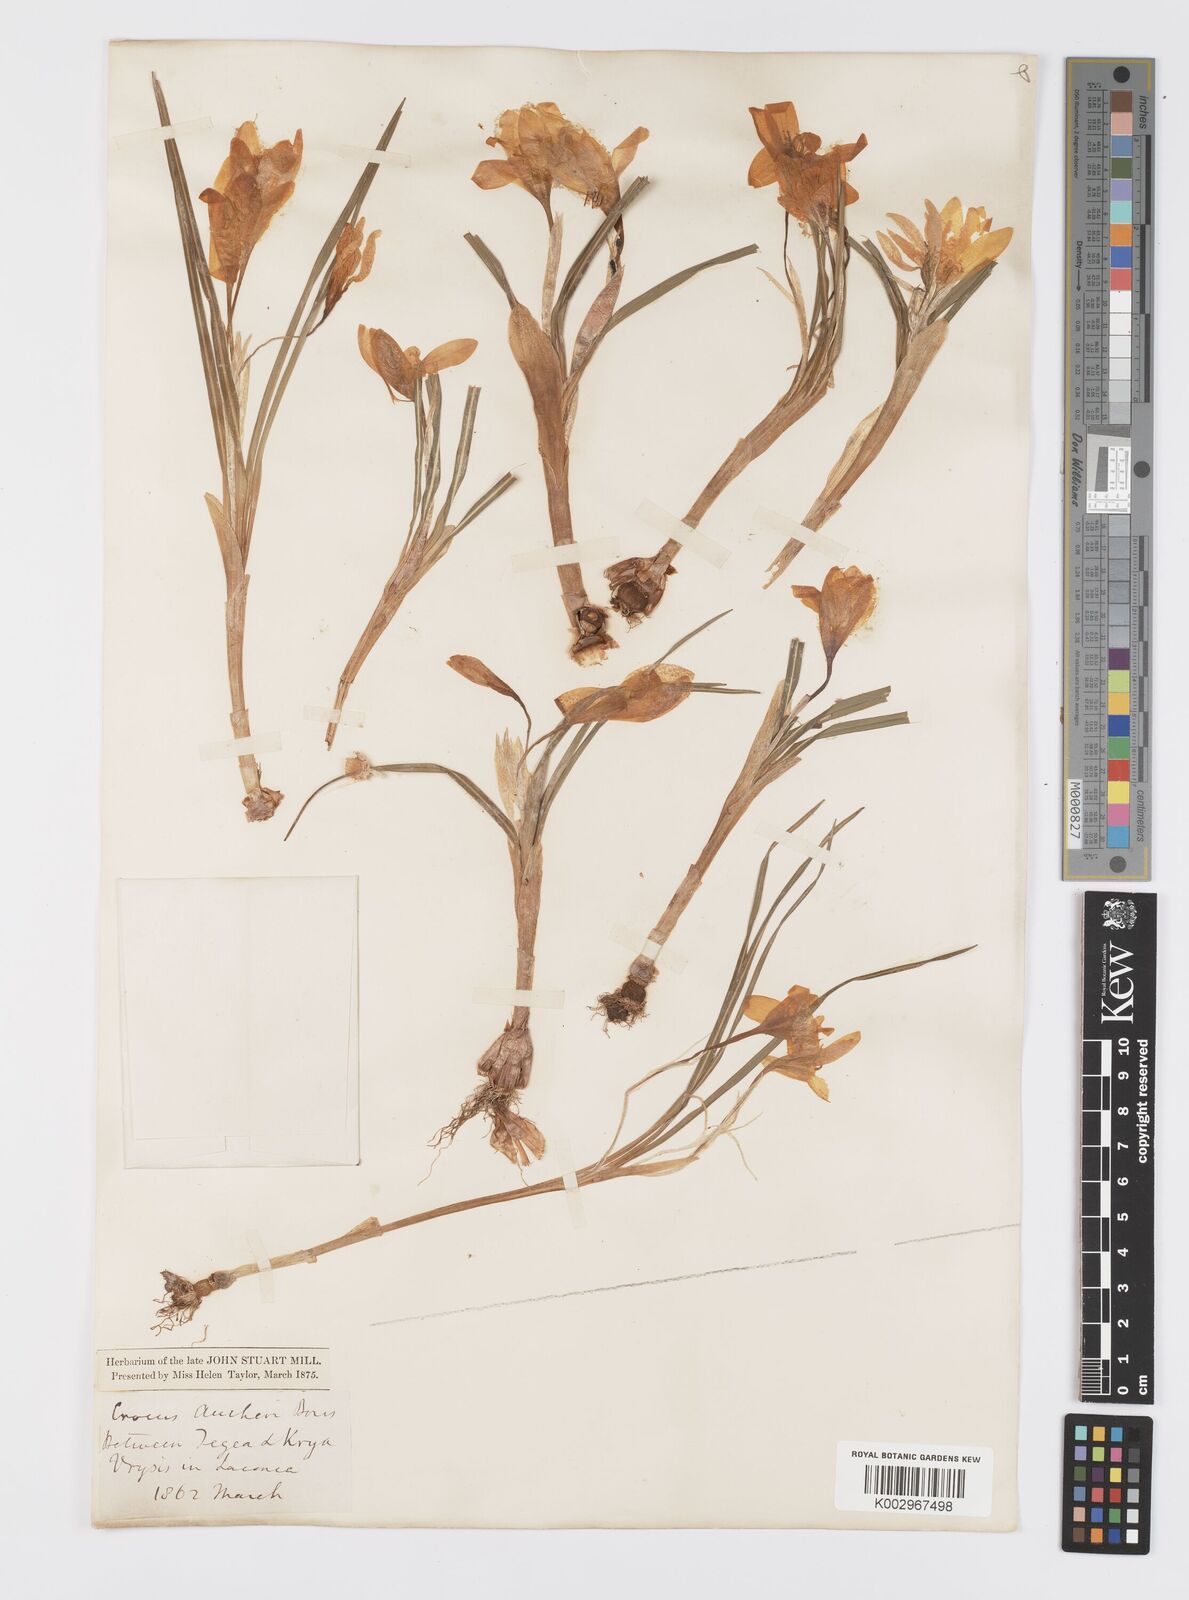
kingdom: Plantae
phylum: Tracheophyta
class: Liliopsida
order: Asparagales
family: Iridaceae
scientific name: Iridaceae
